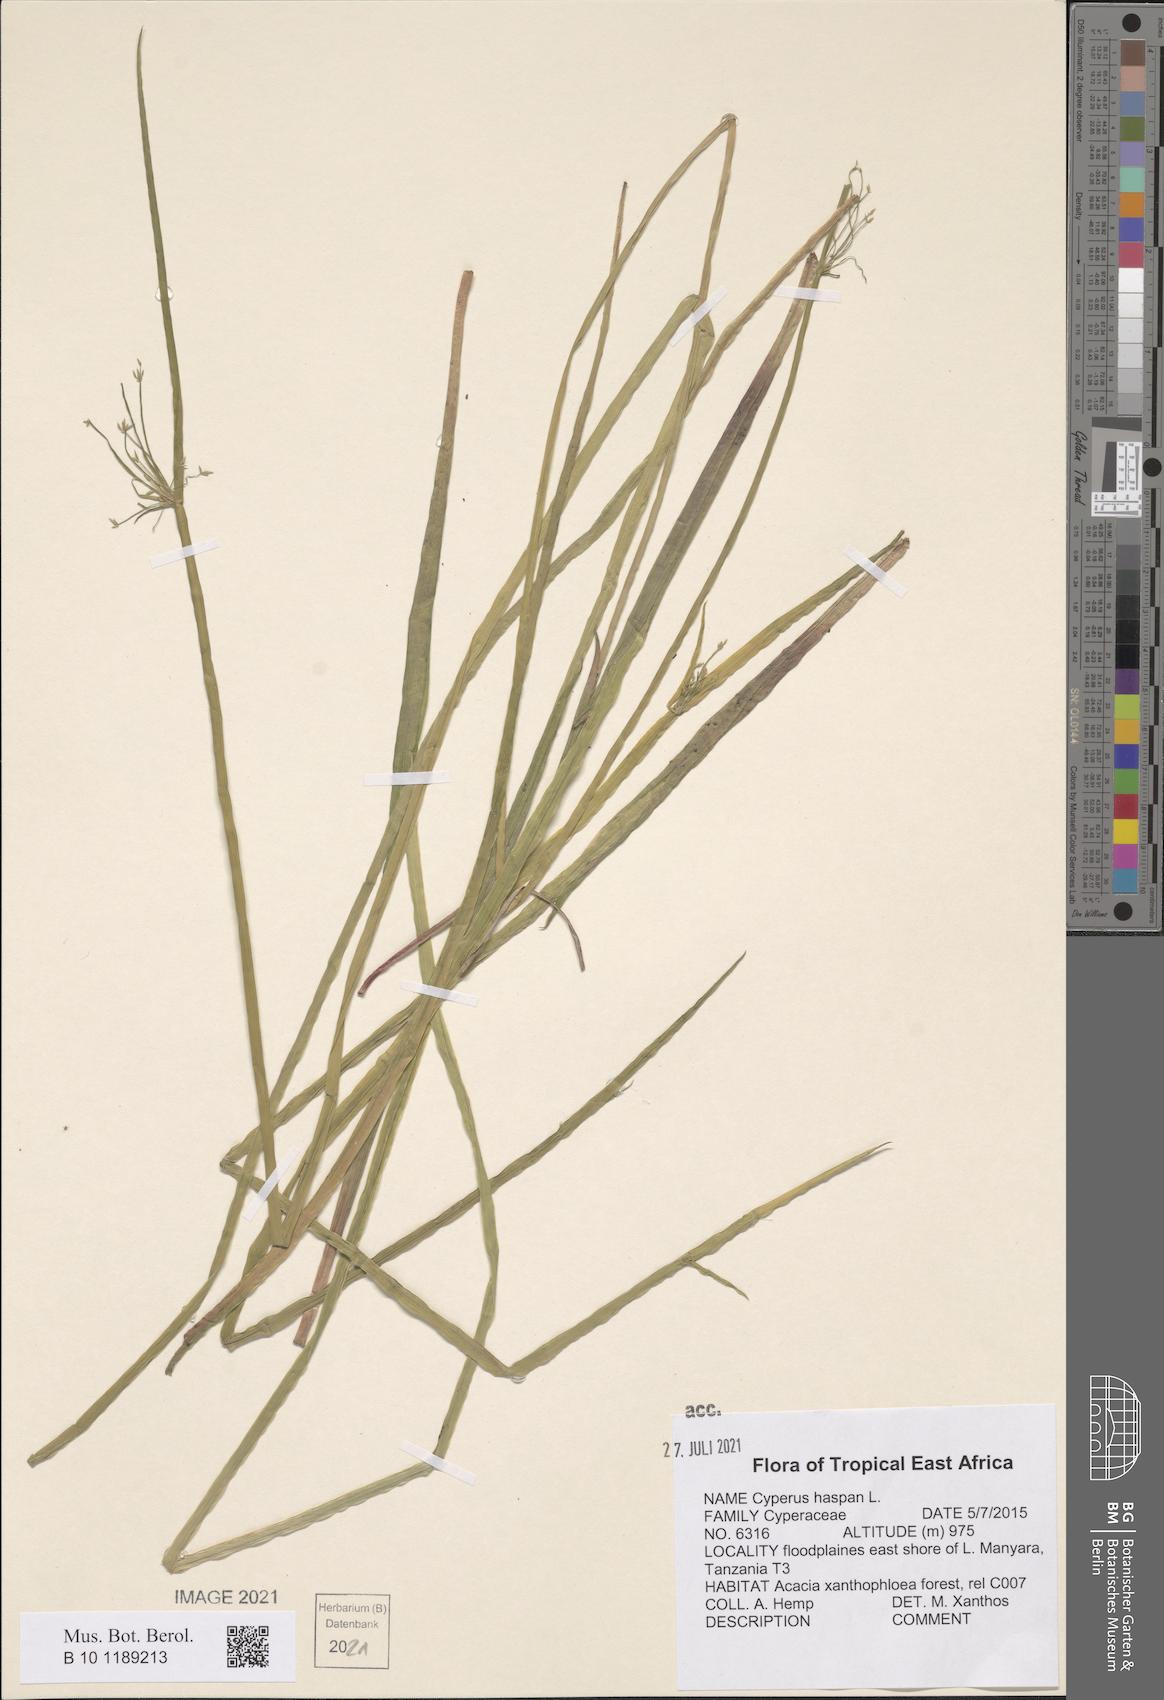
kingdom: Plantae
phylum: Tracheophyta
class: Liliopsida
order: Poales
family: Cyperaceae
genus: Cyperus
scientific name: Cyperus haspan
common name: Haspan flatsedge
